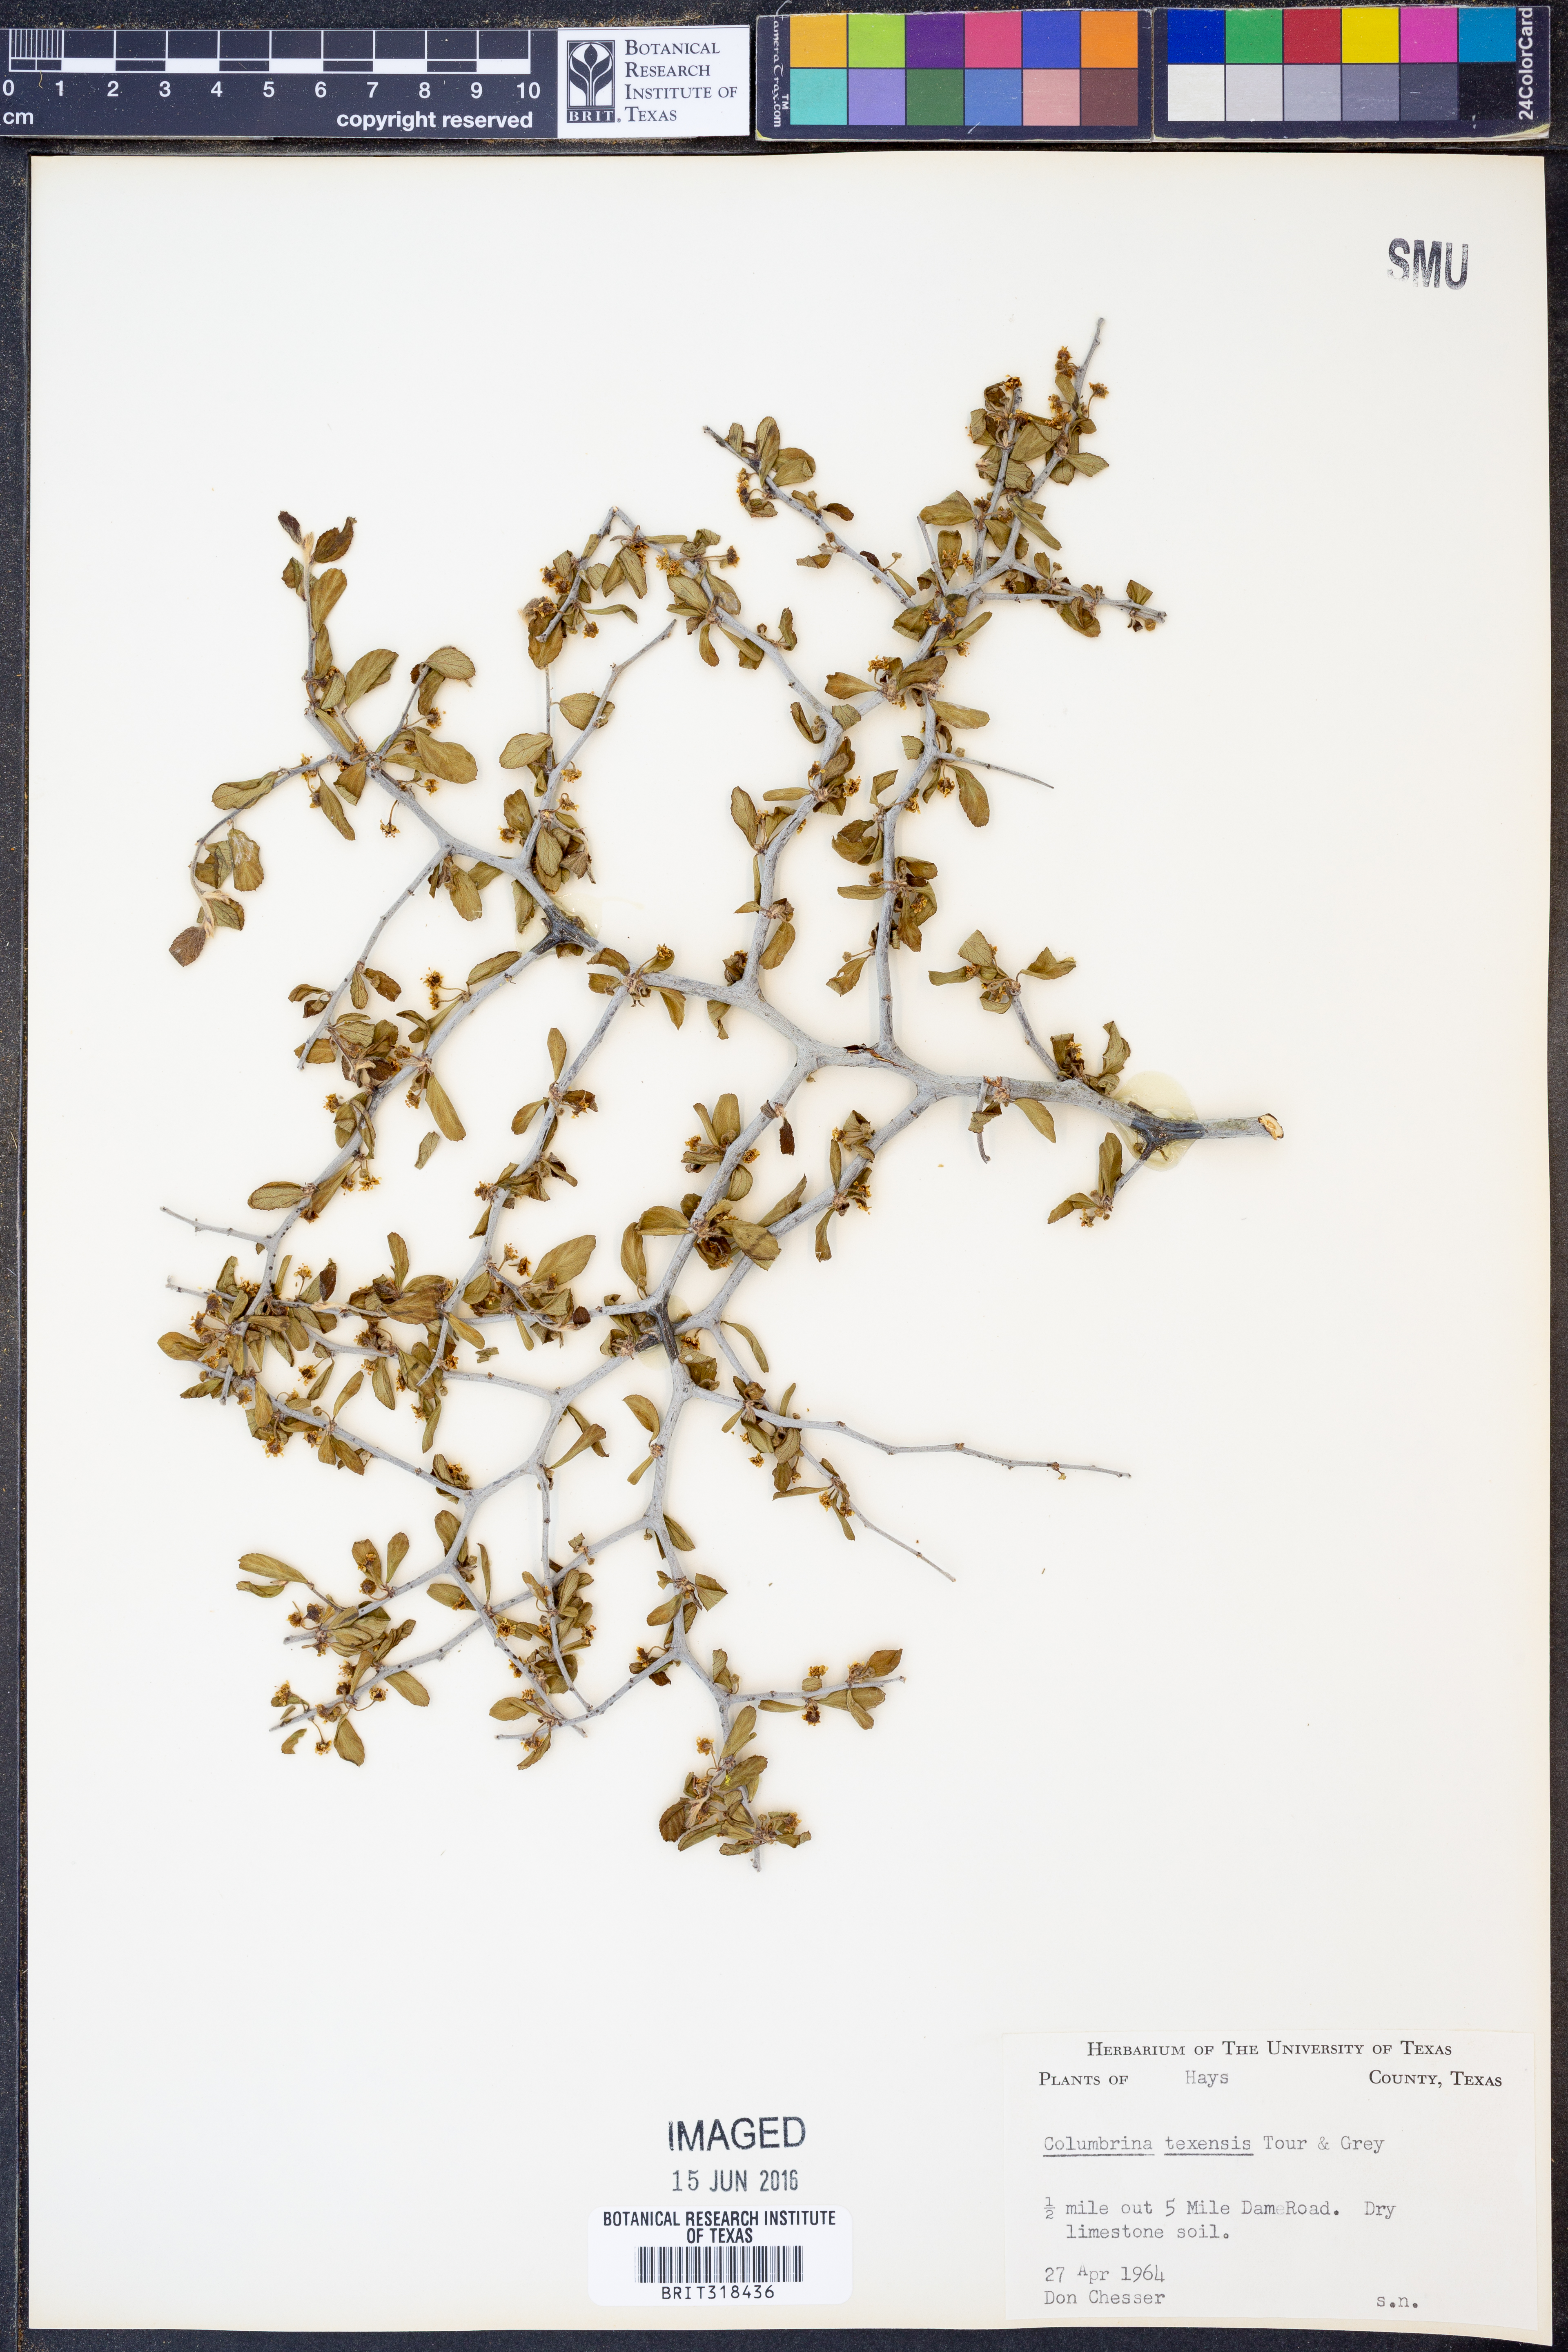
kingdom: Plantae
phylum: Tracheophyta
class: Magnoliopsida
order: Rosales
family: Rhamnaceae
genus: Colubrina
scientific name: Colubrina texensis
